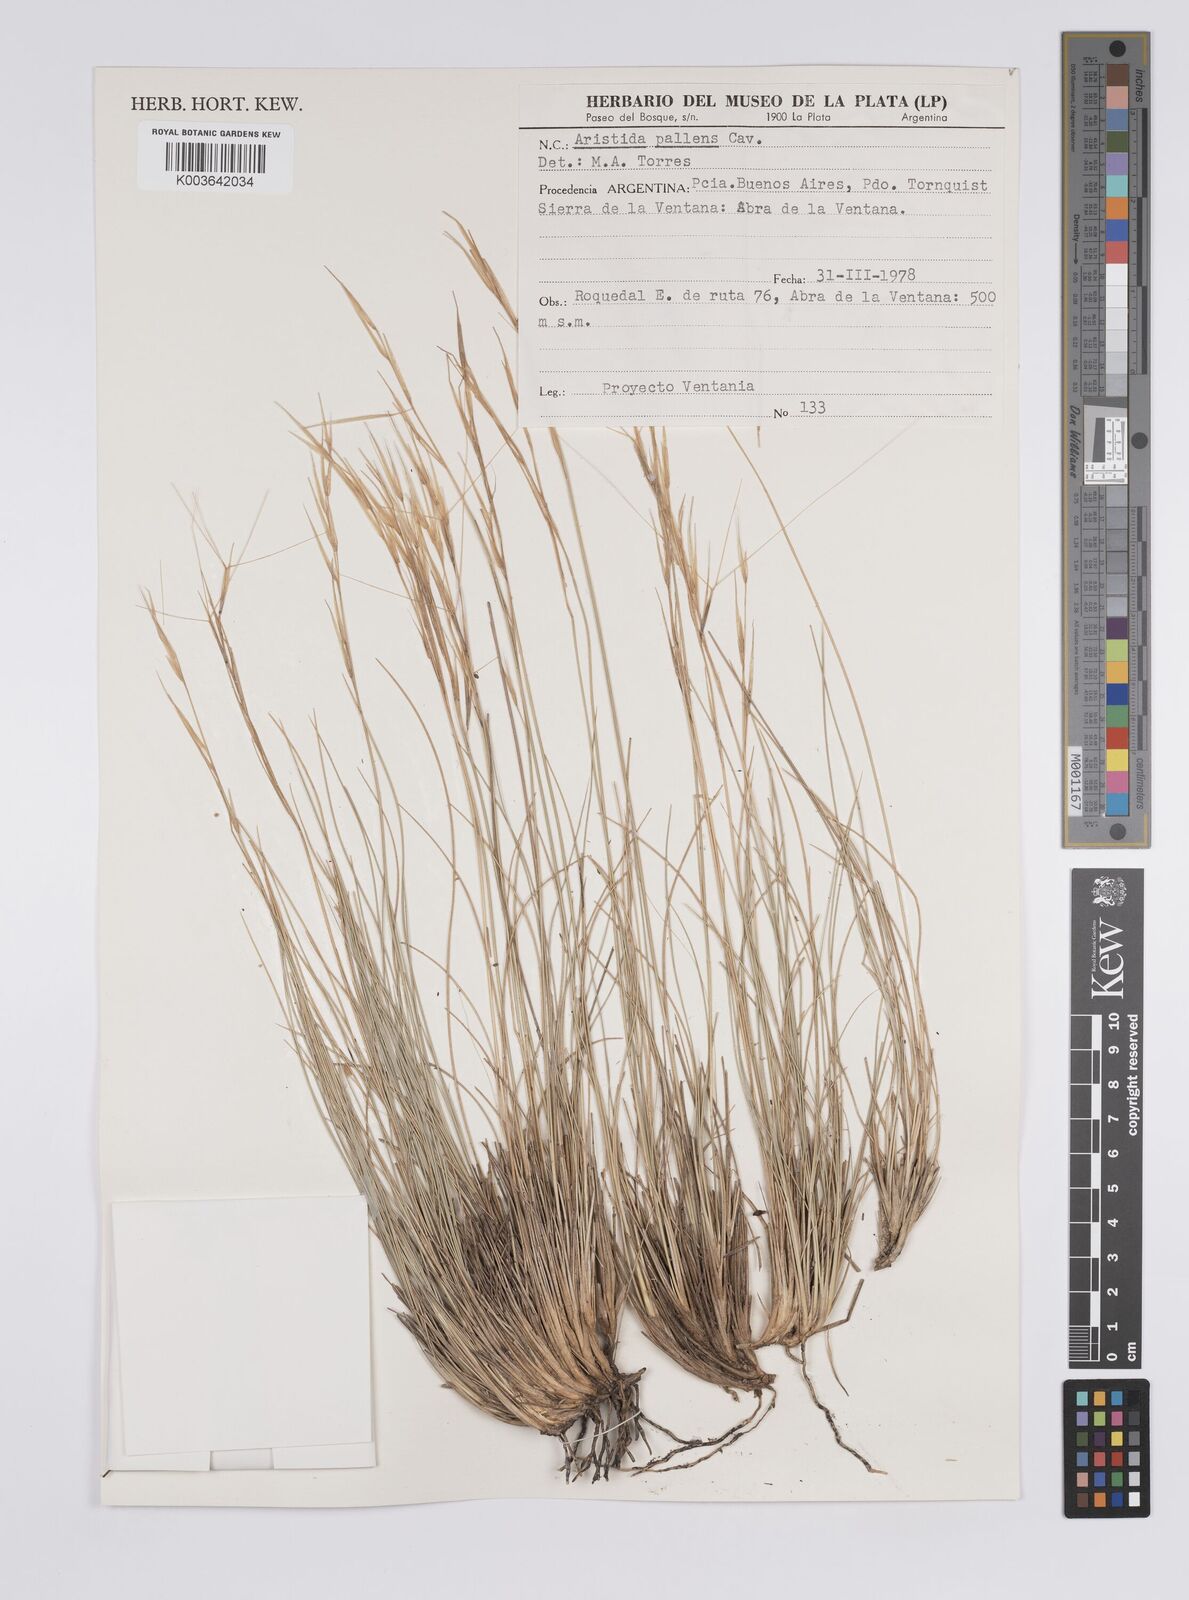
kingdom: Plantae
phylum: Tracheophyta
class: Liliopsida
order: Poales
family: Poaceae
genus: Aristida
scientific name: Aristida pallens
